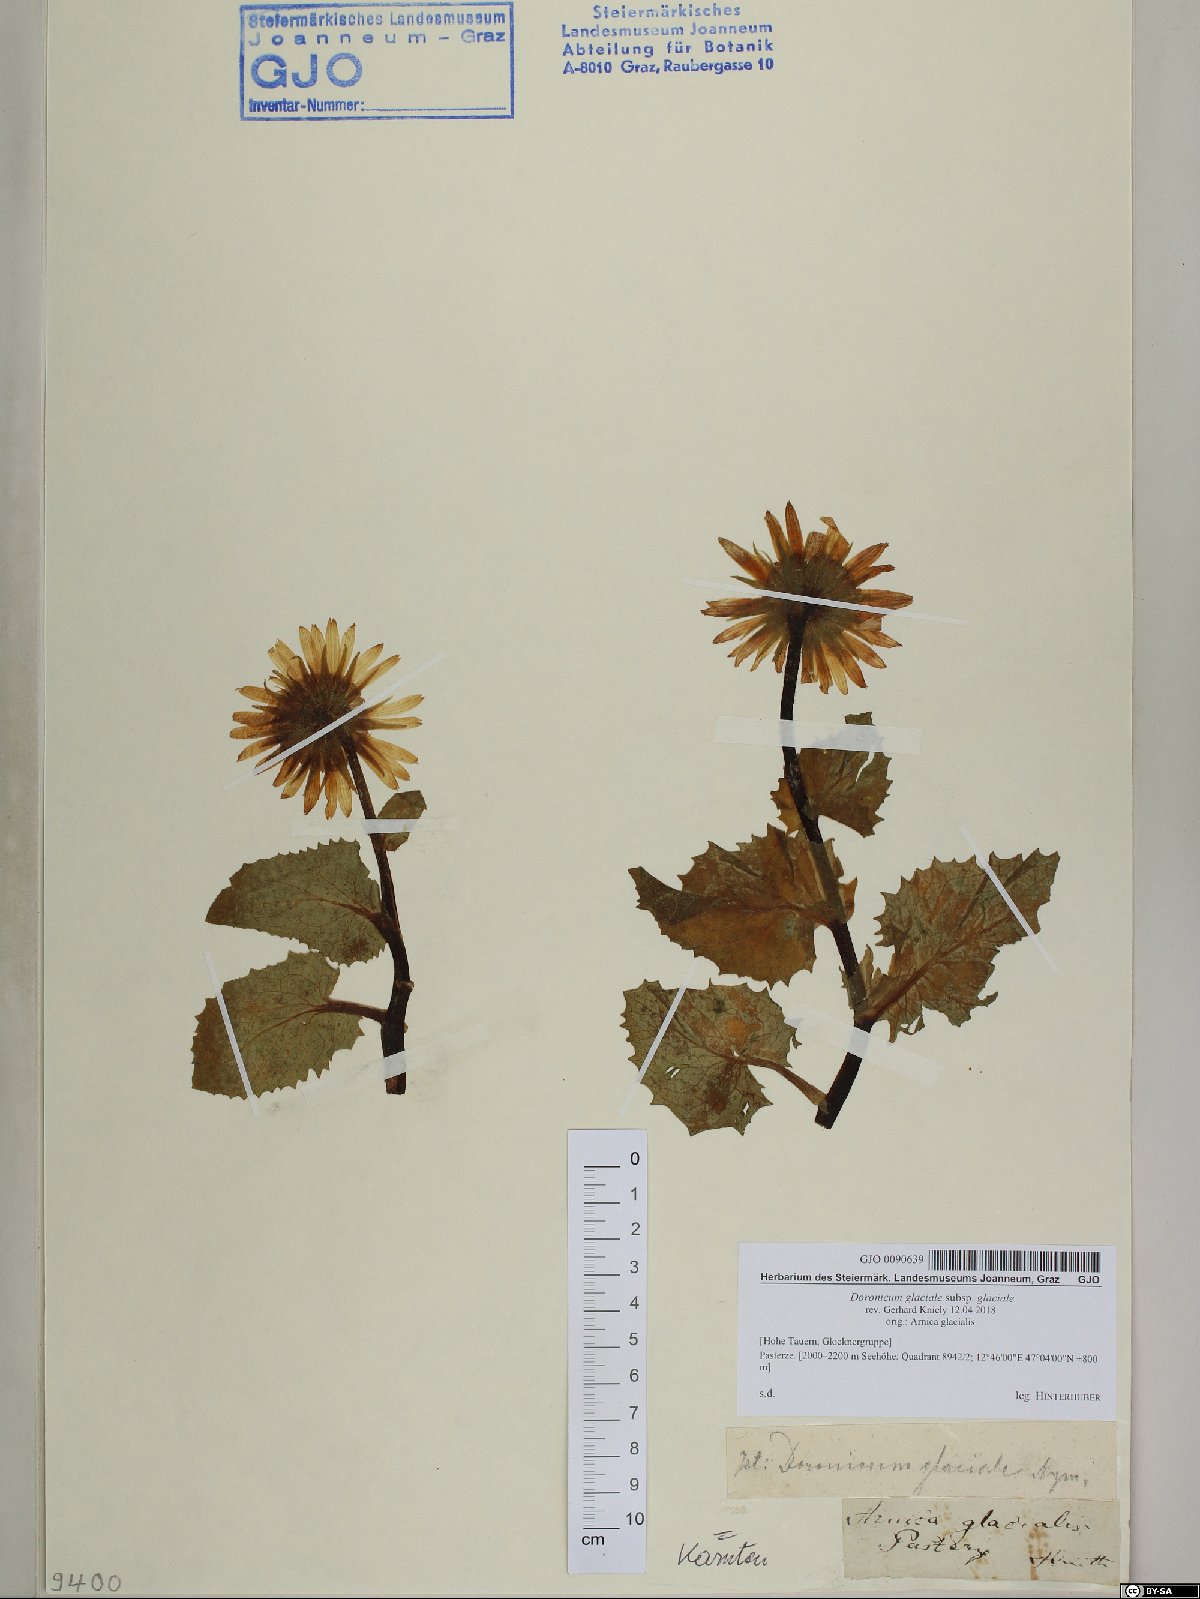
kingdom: Plantae
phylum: Tracheophyta
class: Magnoliopsida
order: Asterales
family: Asteraceae
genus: Doronicum
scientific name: Doronicum glaciale
